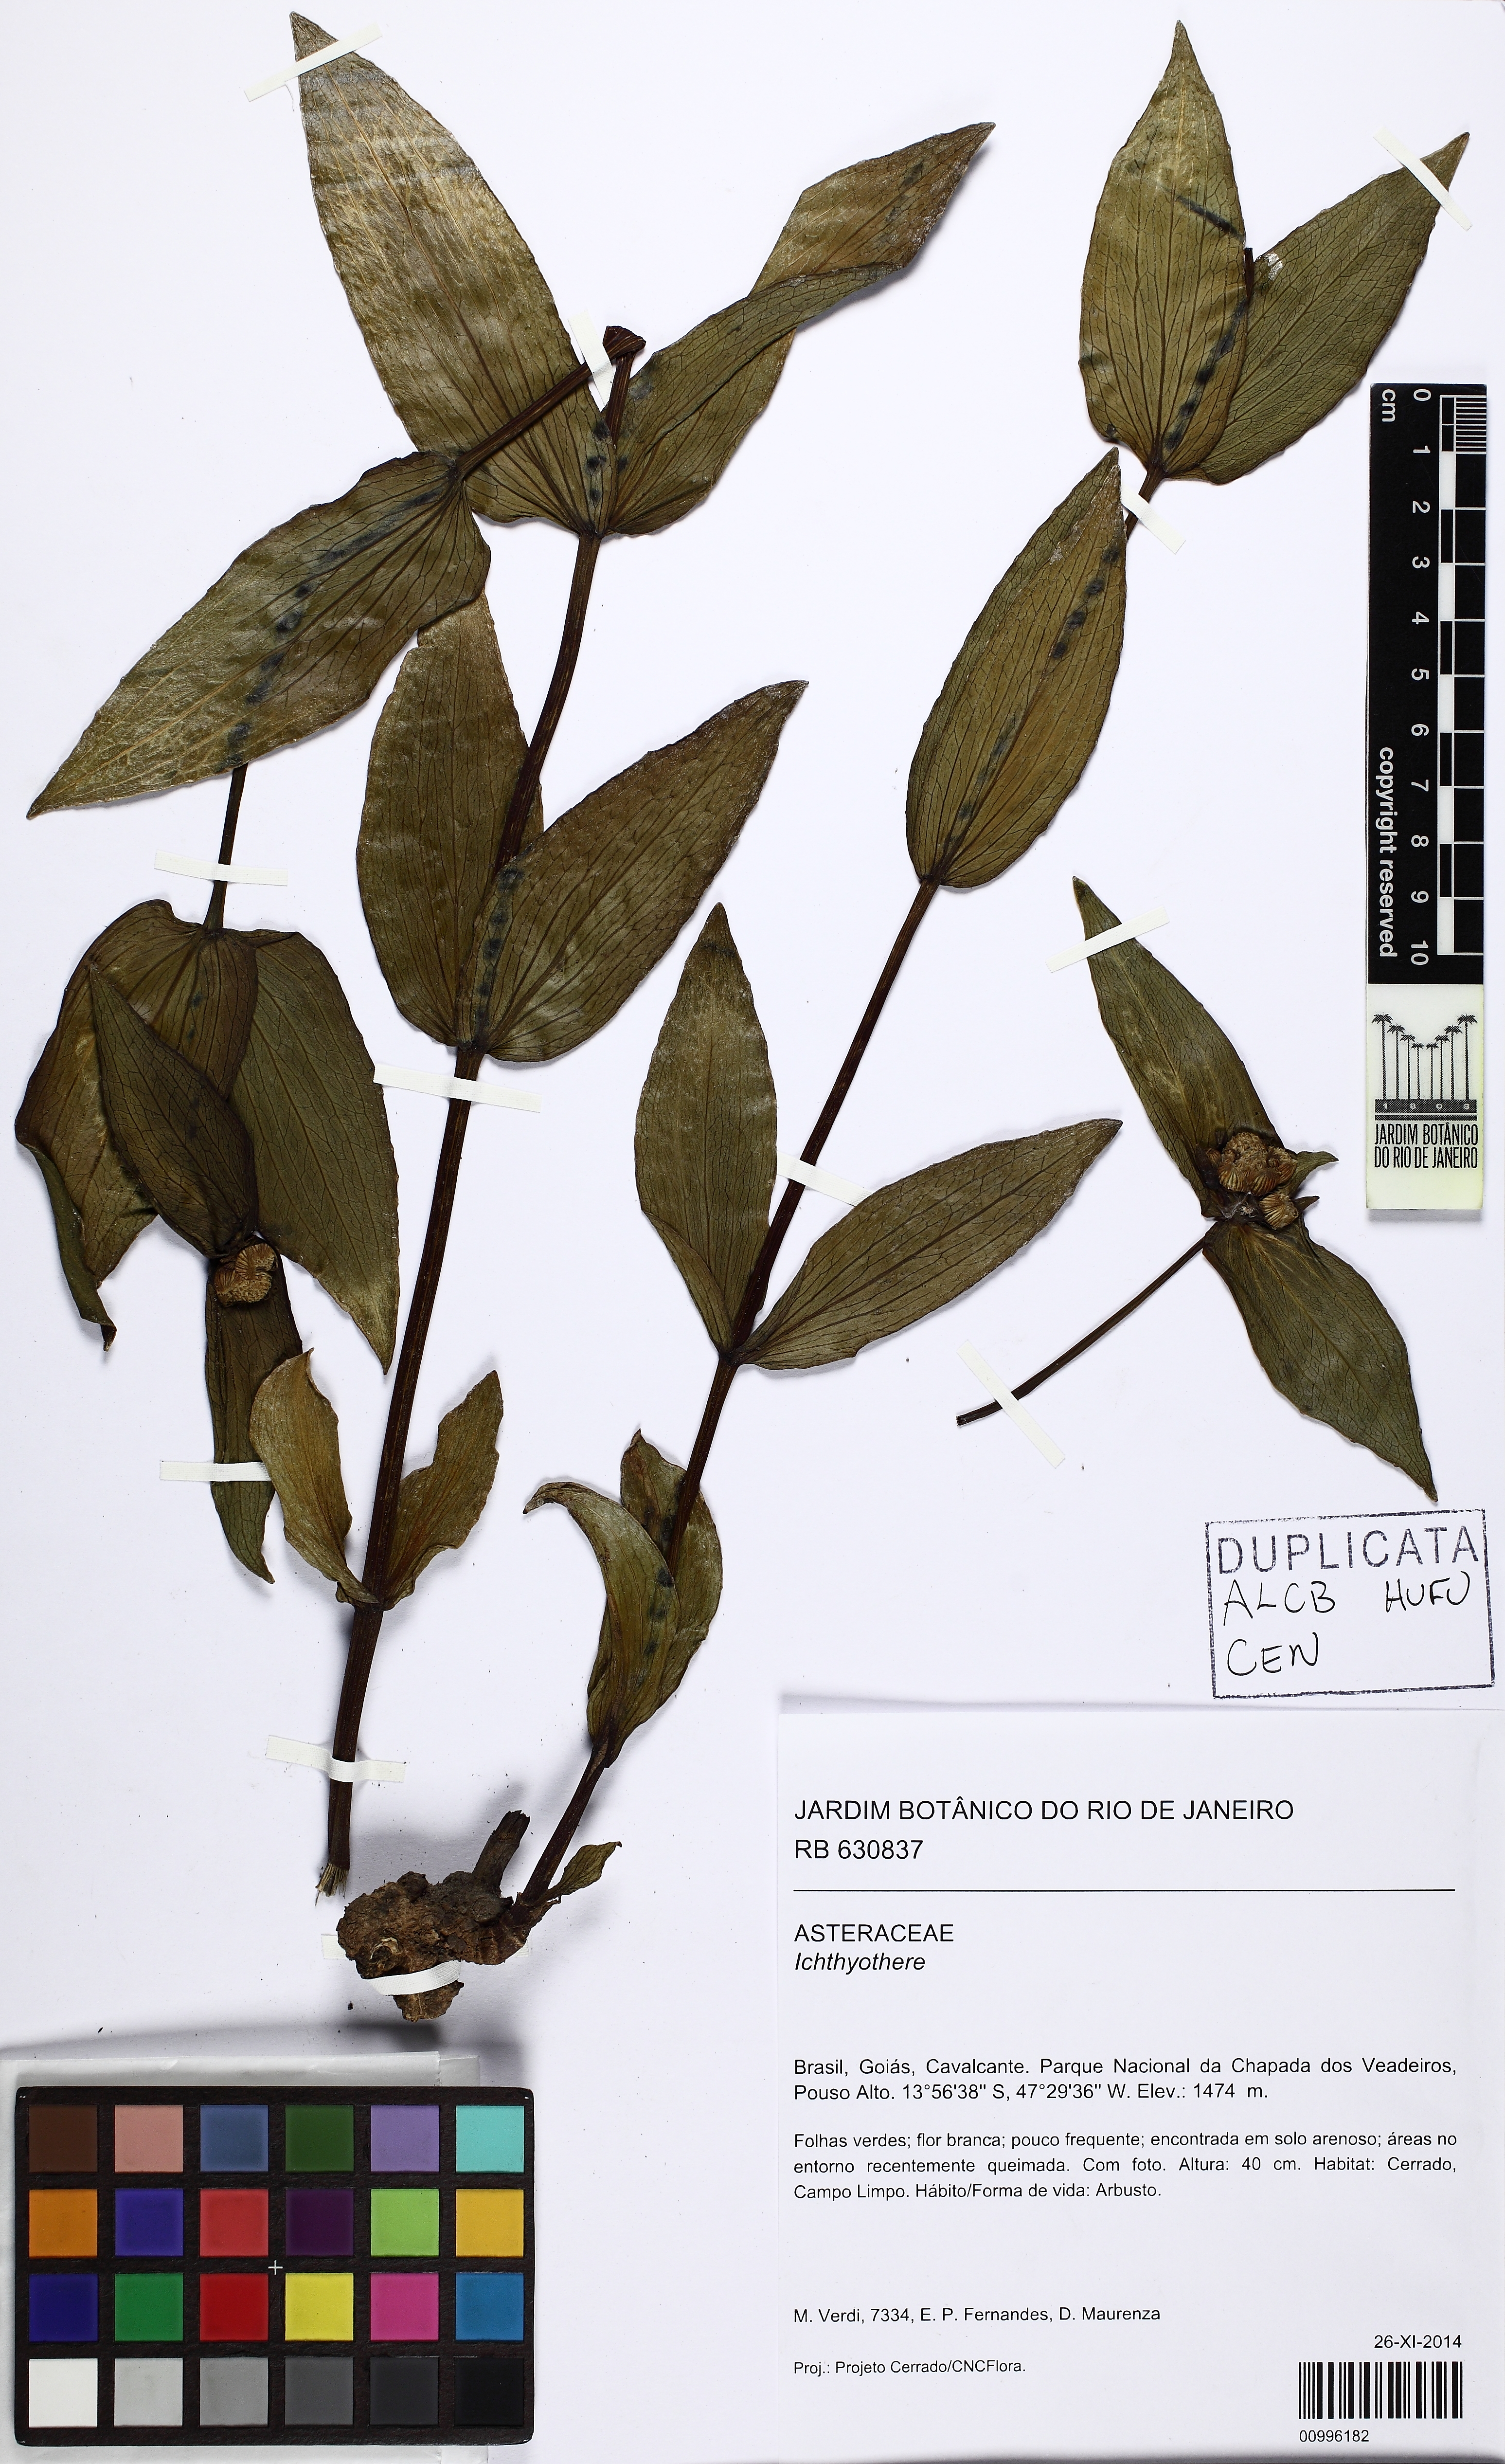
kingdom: Plantae
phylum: Tracheophyta
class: Magnoliopsida
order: Asterales
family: Asteraceae
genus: Ichthyothere
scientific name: Ichthyothere
